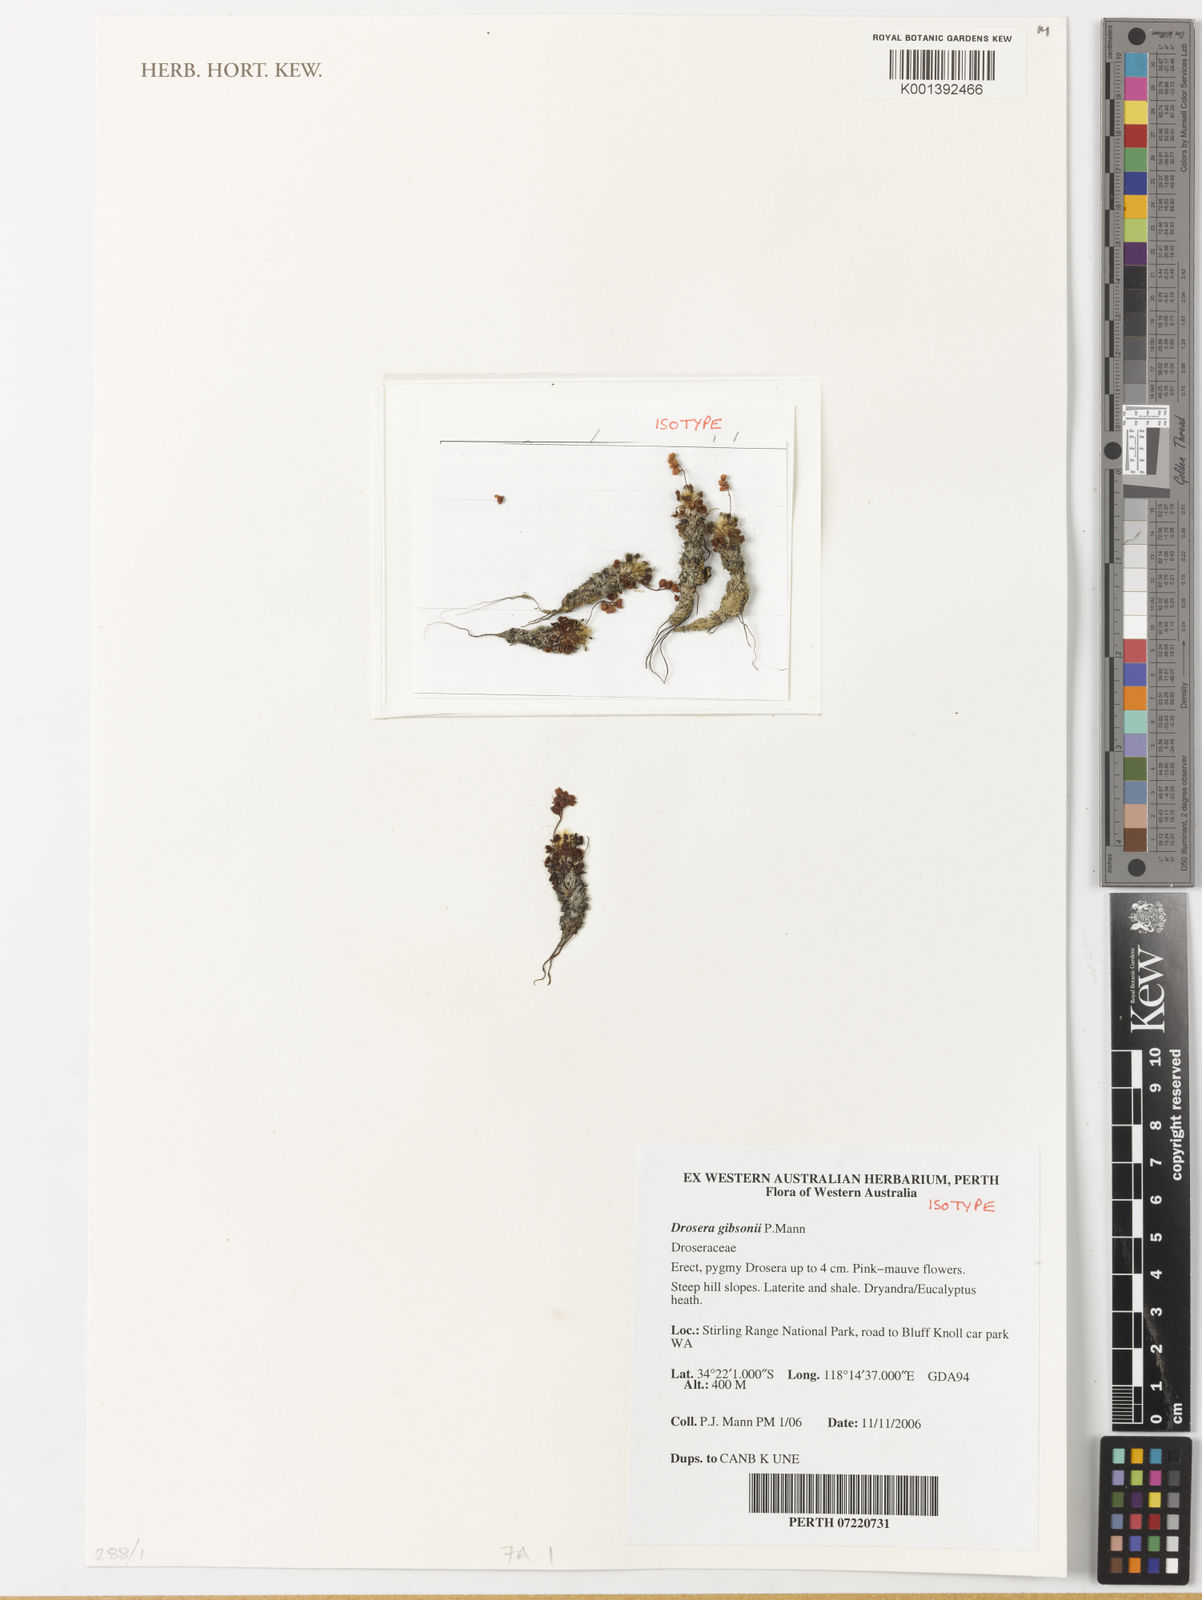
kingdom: Plantae
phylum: Tracheophyta
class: Magnoliopsida
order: Caryophyllales
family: Droseraceae
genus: Drosera
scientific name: Drosera gibsonii
